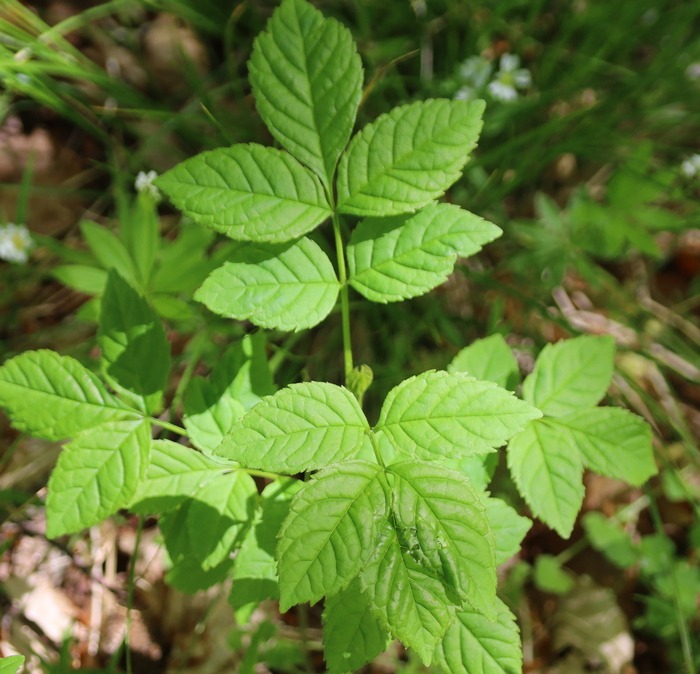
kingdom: Plantae
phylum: Tracheophyta
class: Magnoliopsida
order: Lamiales
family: Oleaceae
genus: Fraxinus
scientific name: Fraxinus excelsior
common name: Ask
